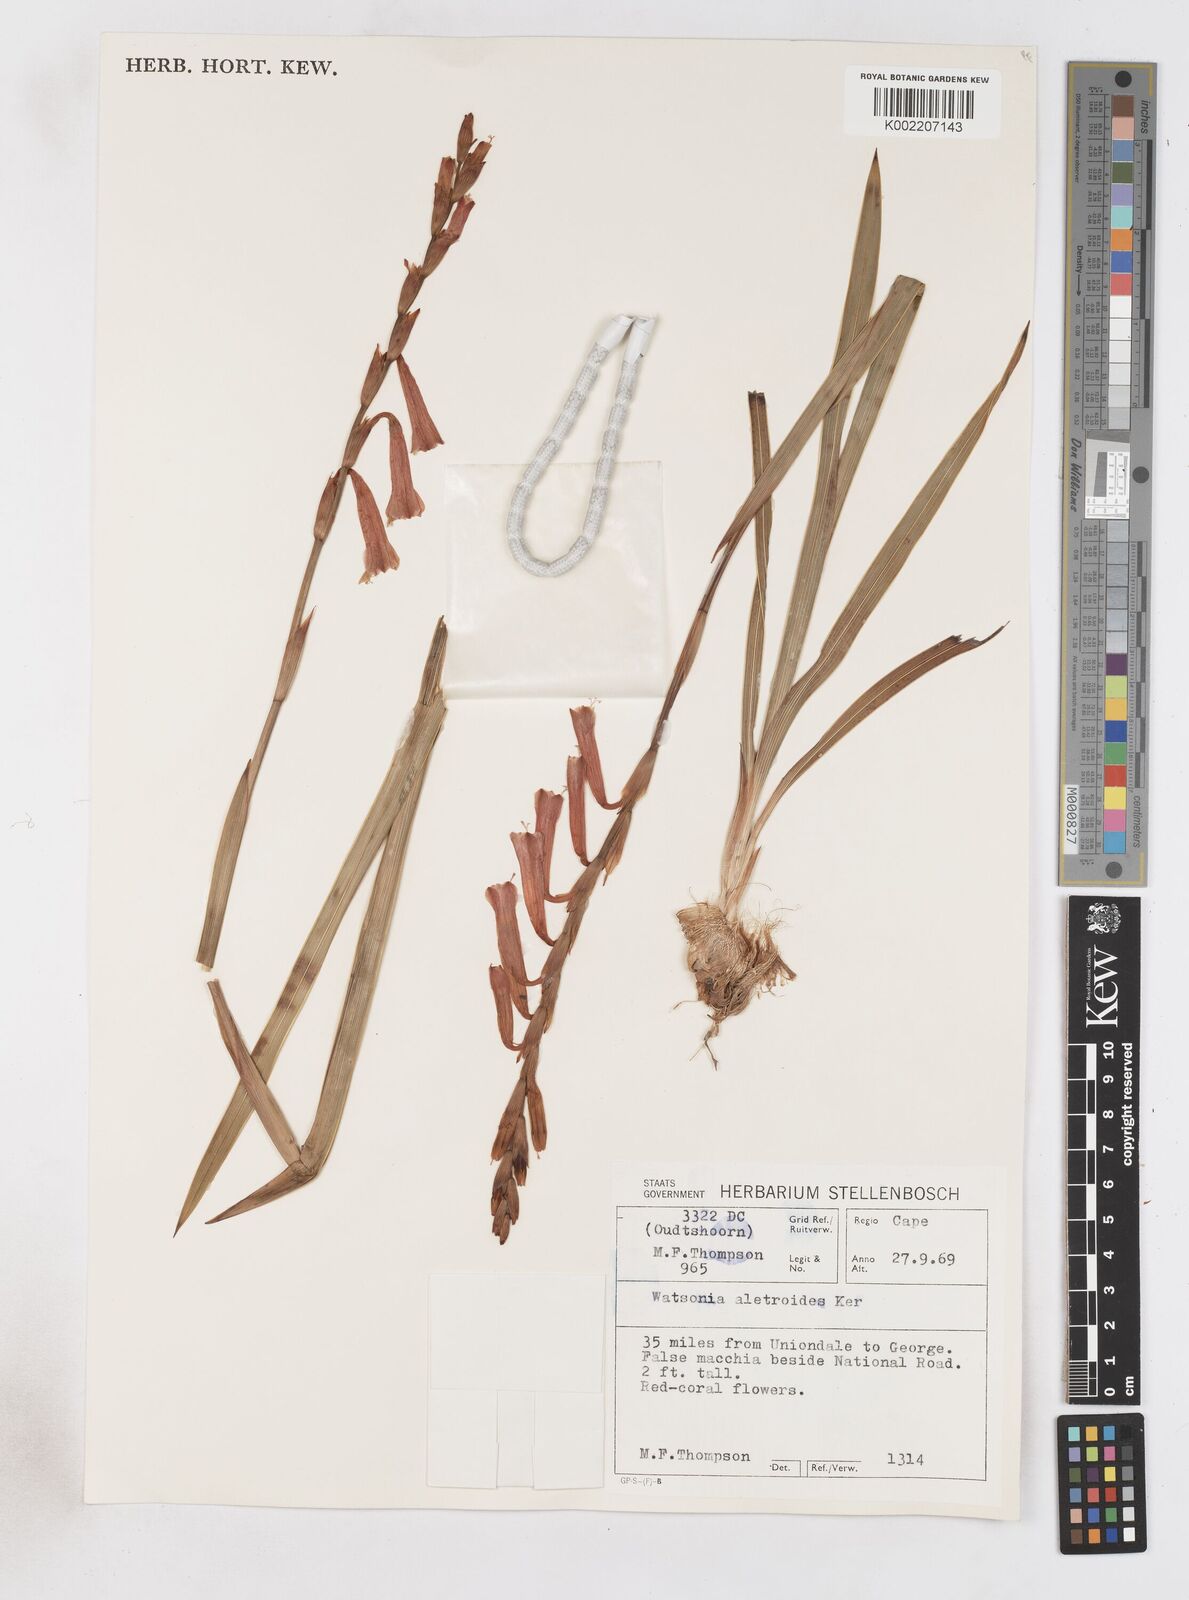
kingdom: Plantae
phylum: Tracheophyta
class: Liliopsida
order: Asparagales
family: Iridaceae
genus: Watsonia
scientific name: Watsonia aletroides
